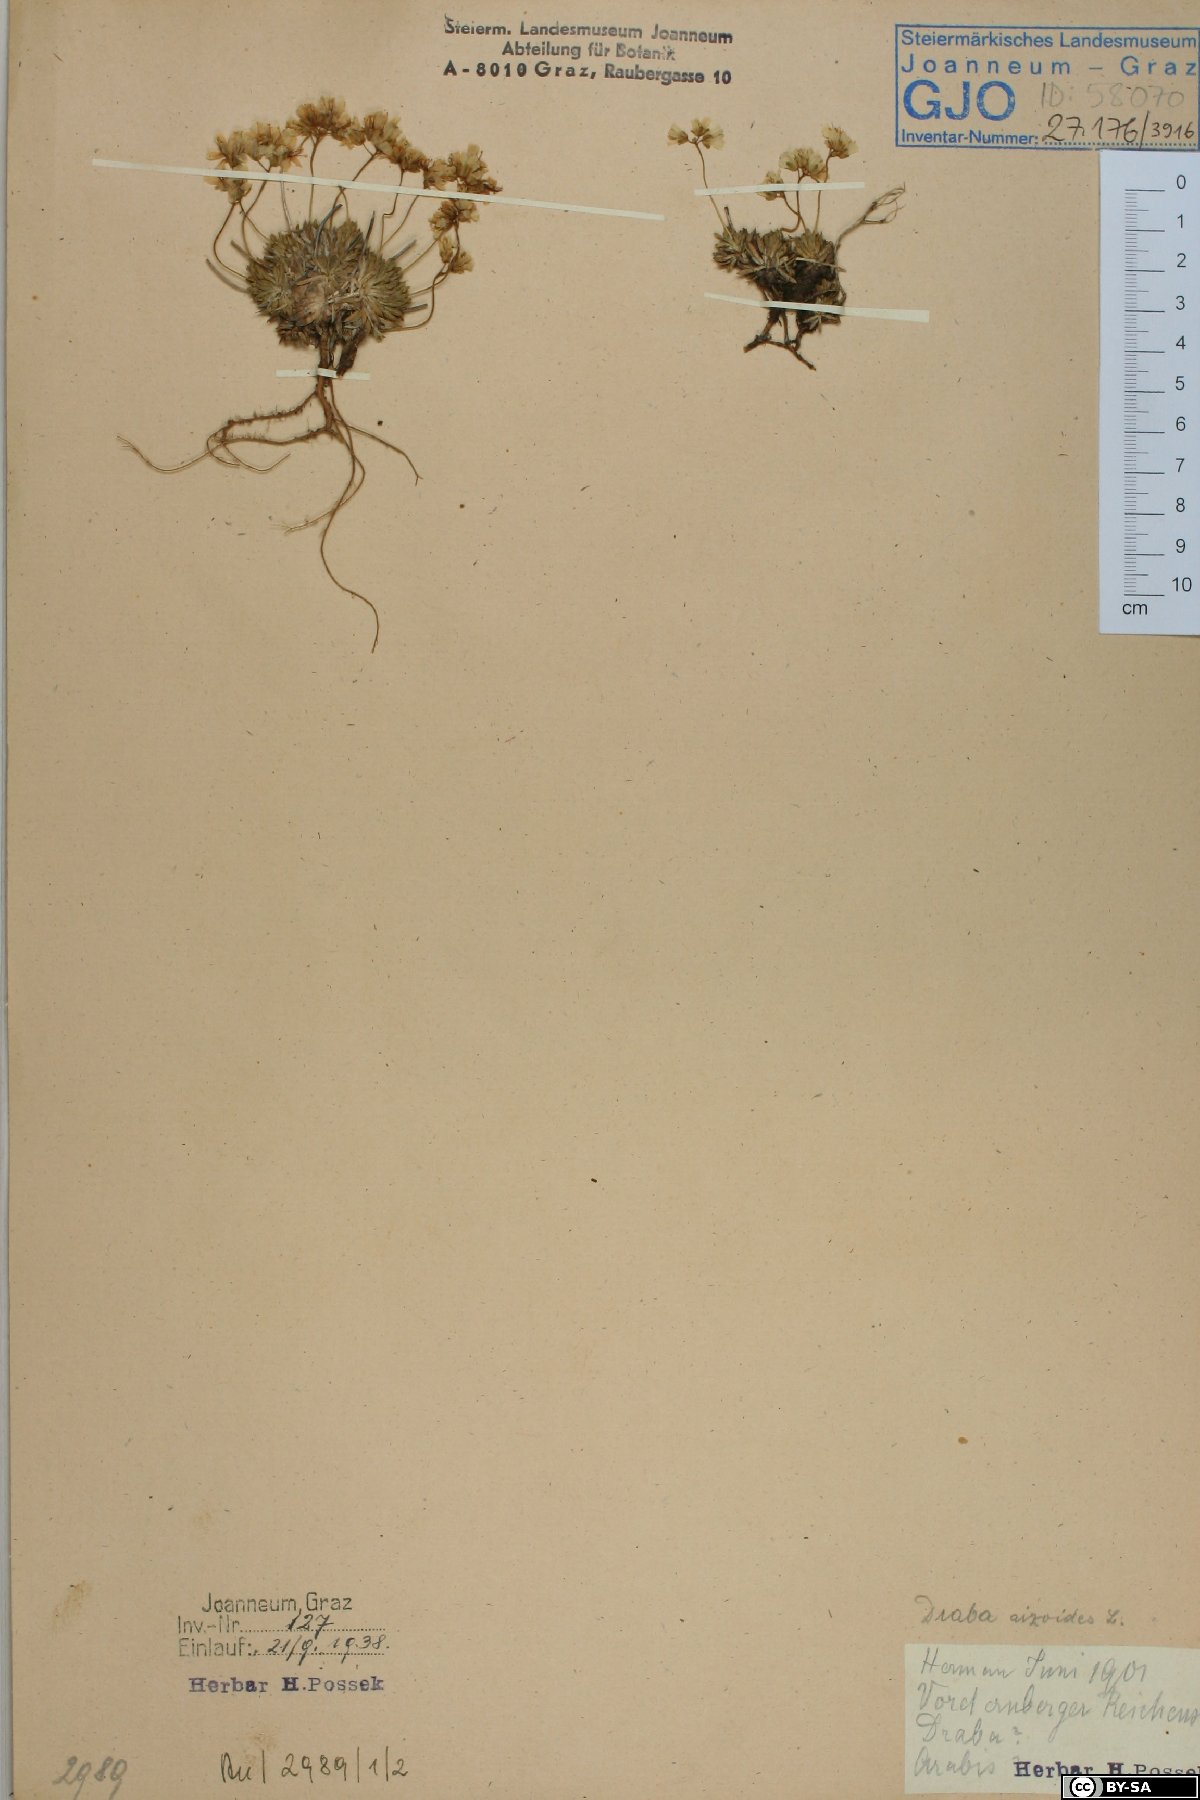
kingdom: Plantae
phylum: Tracheophyta
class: Magnoliopsida
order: Brassicales
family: Brassicaceae
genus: Draba
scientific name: Draba aizoides
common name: Yellow whitlowgrass
